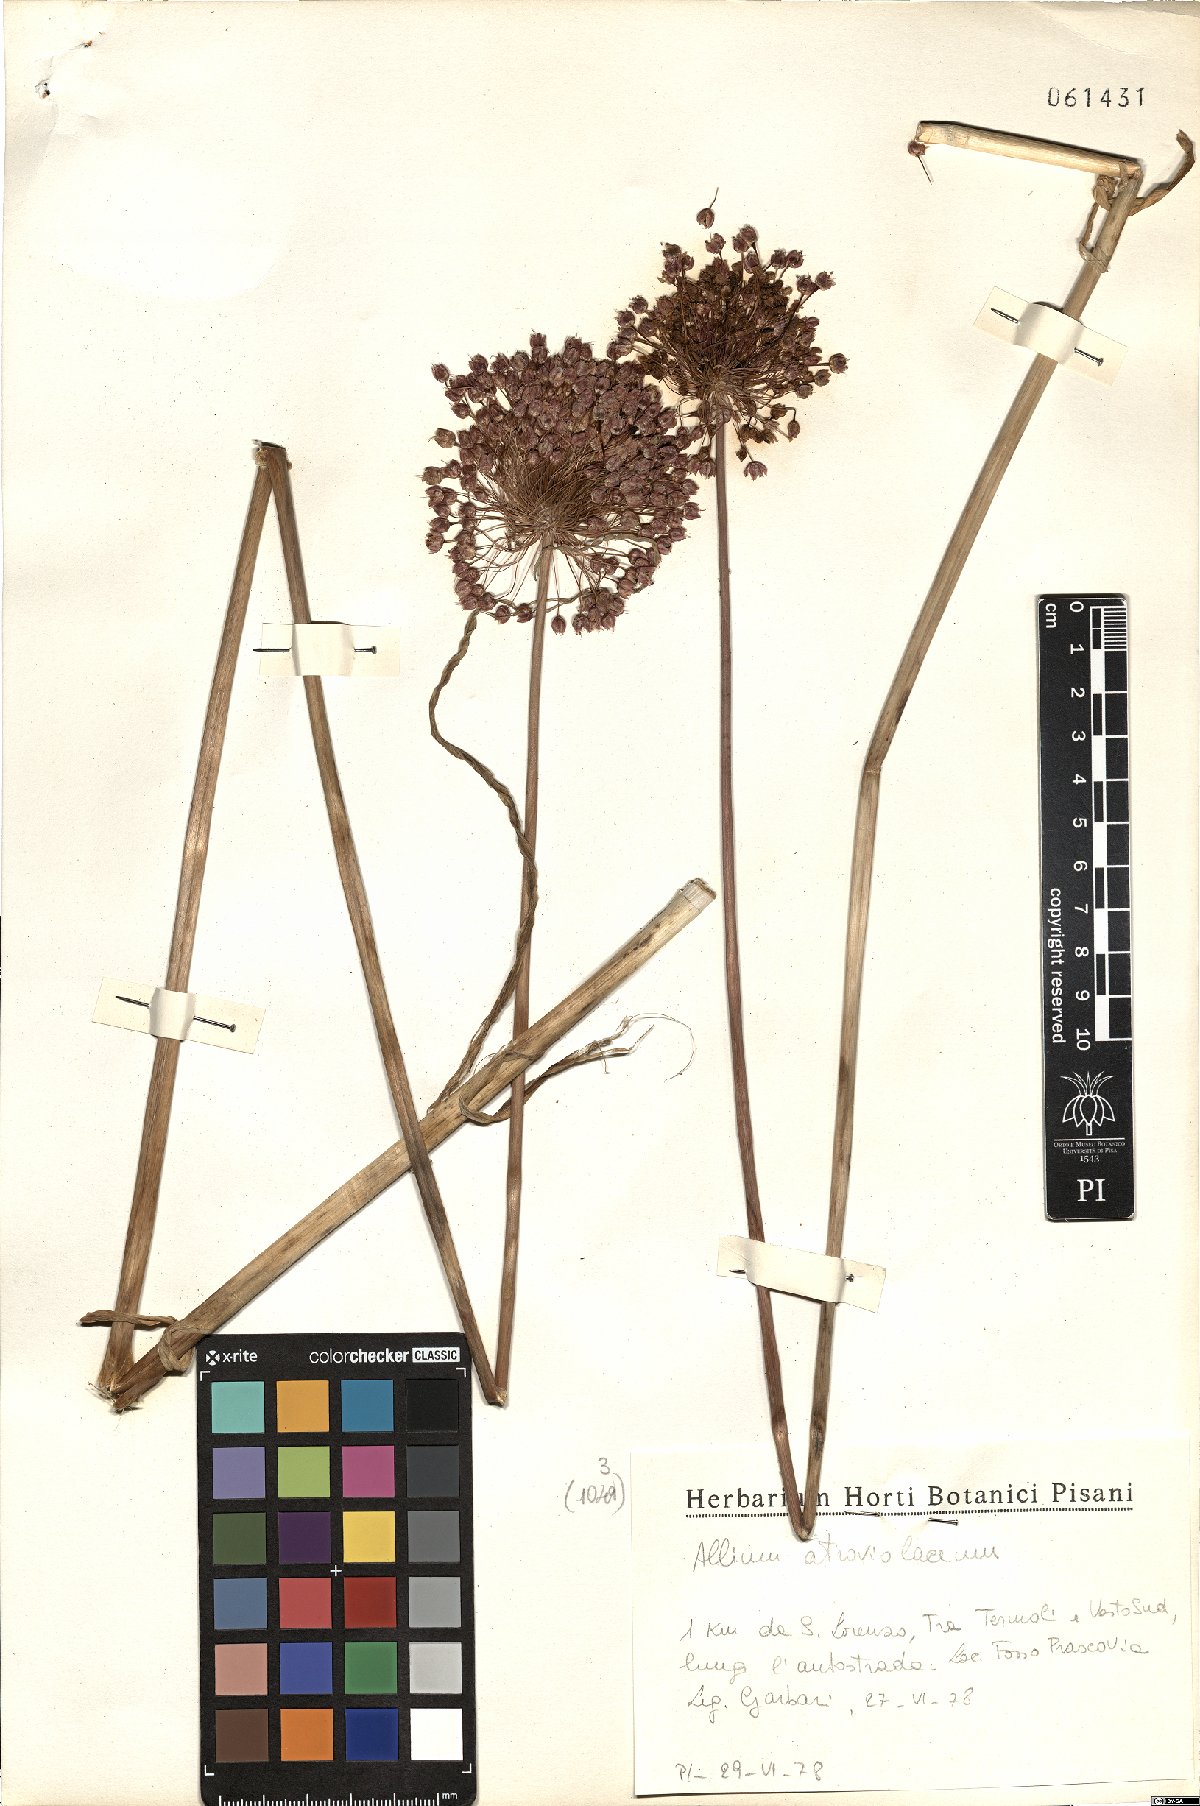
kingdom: Plantae
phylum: Tracheophyta
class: Liliopsida
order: Asparagales
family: Amaryllidaceae
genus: Allium
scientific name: Allium atroviolaceum
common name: Broadleaf wild leek
